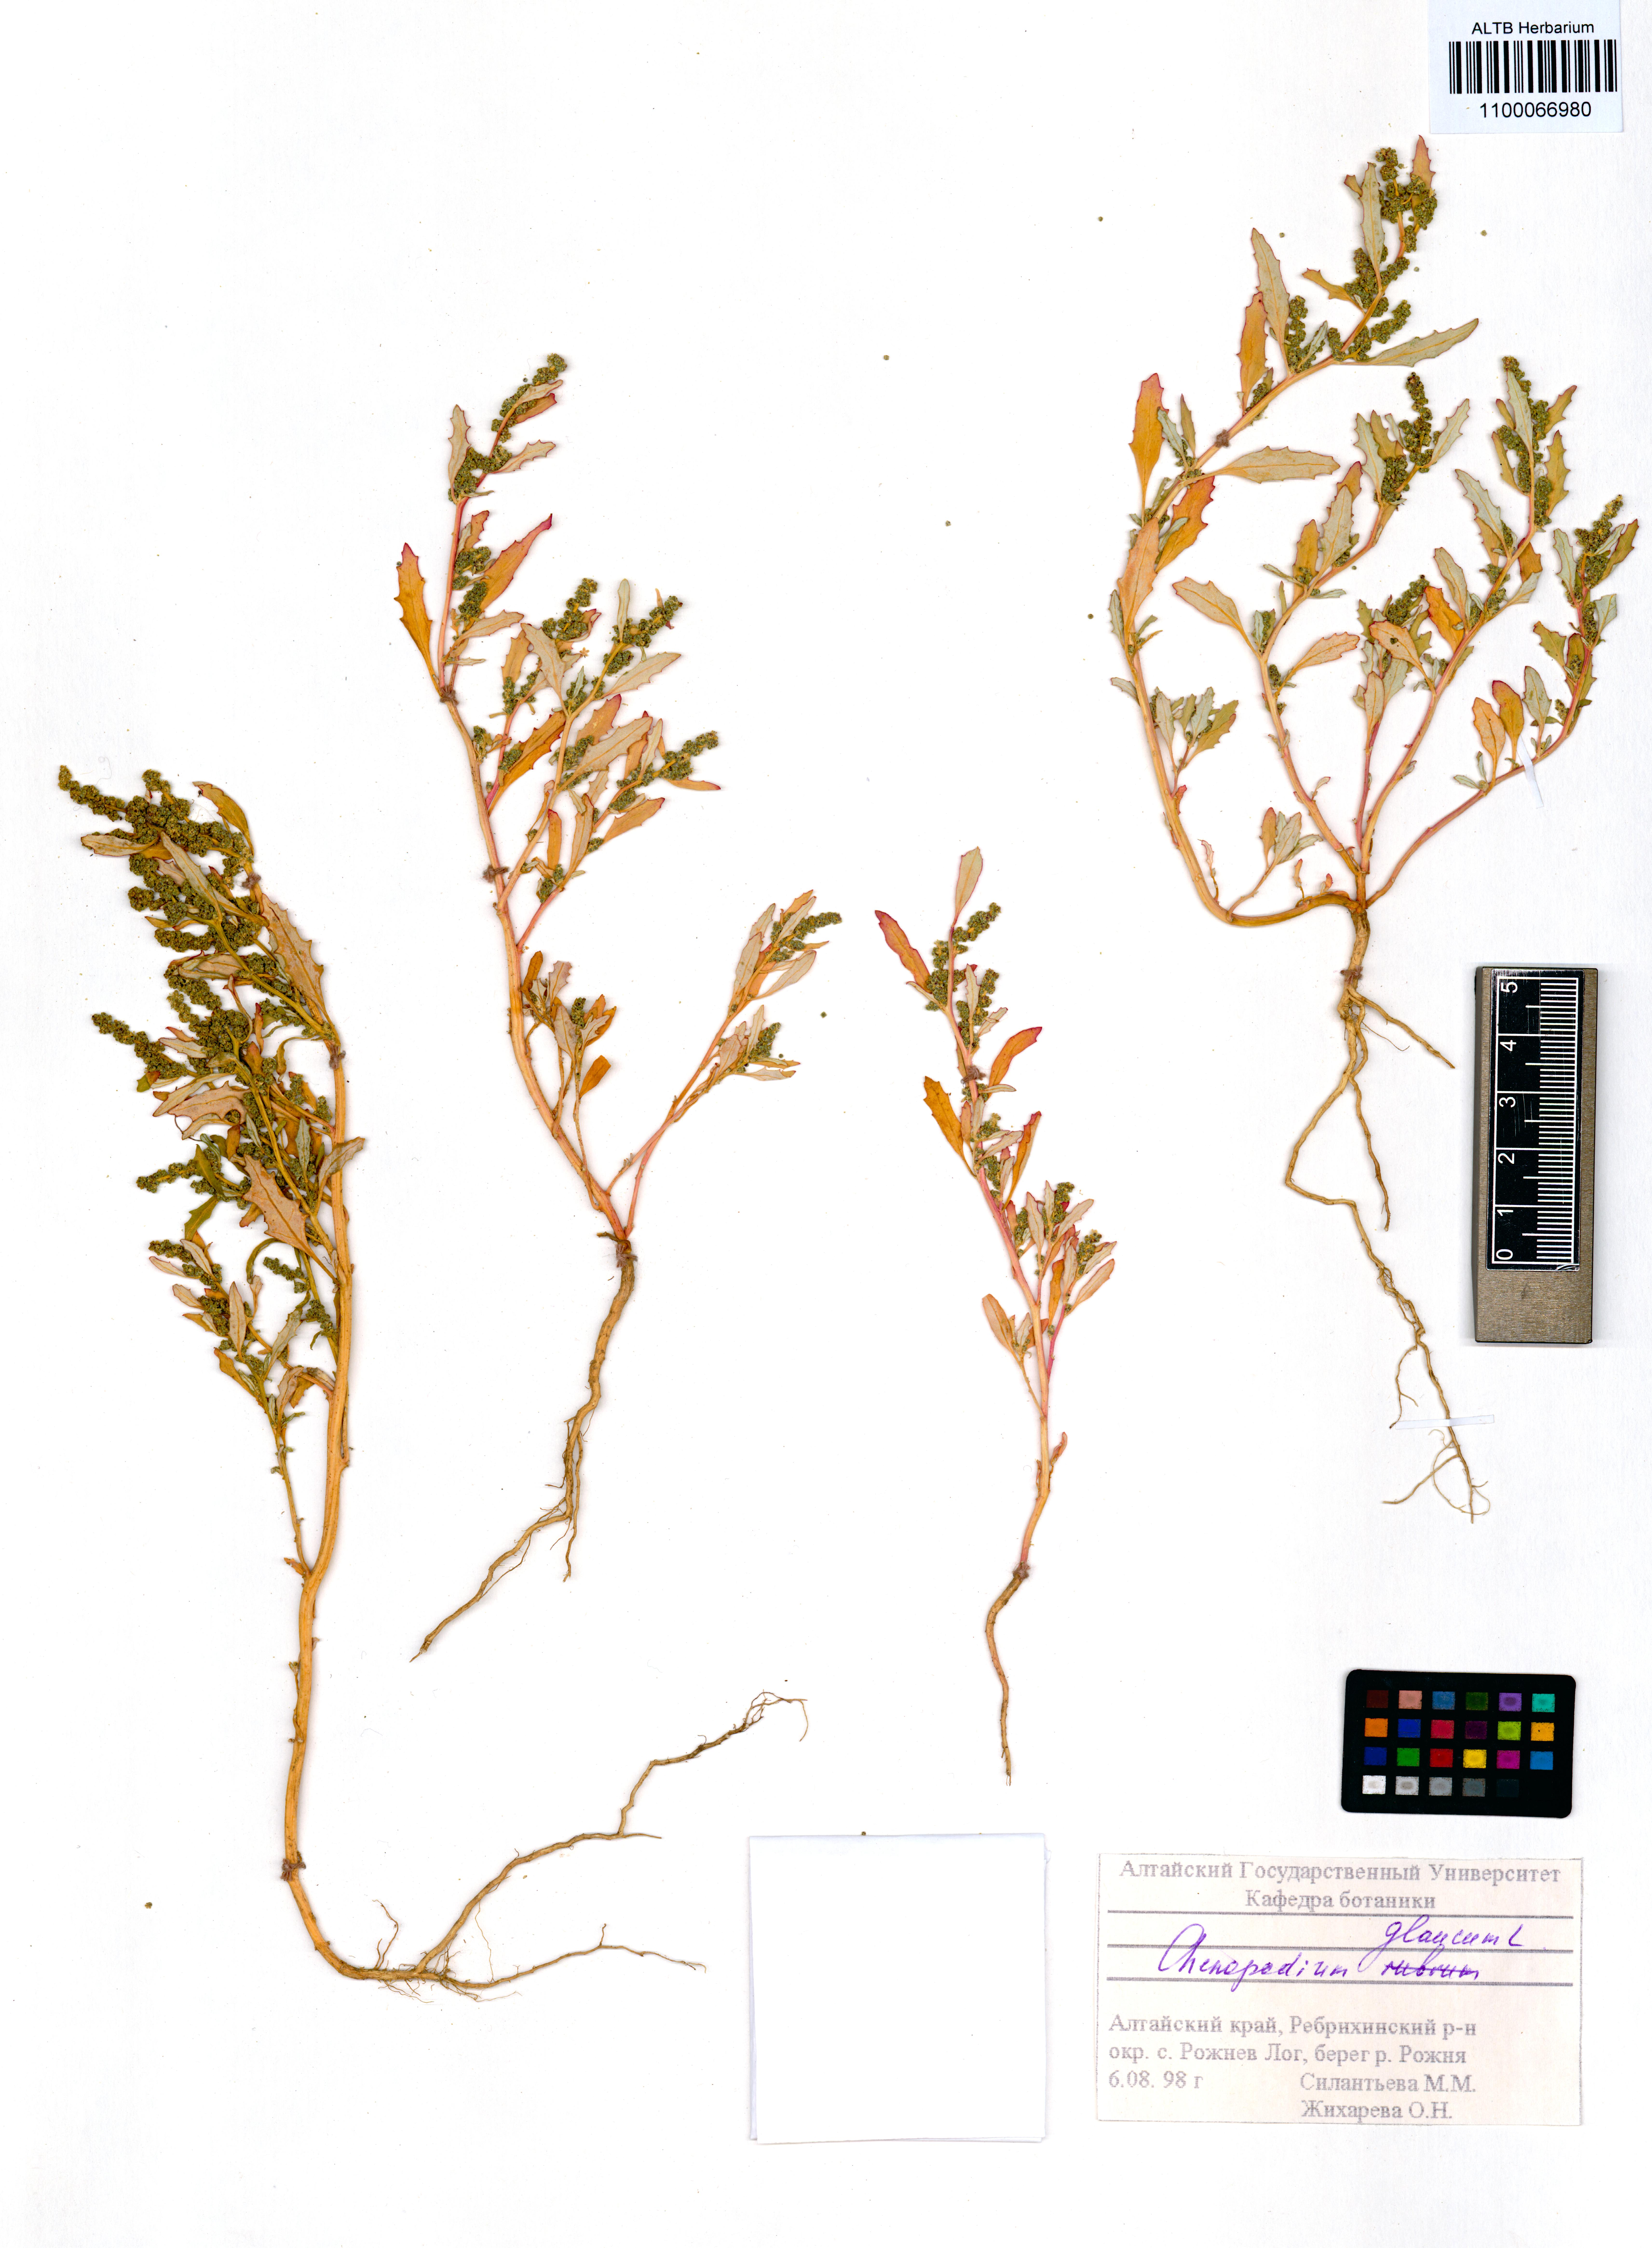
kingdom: Plantae
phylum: Tracheophyta
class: Magnoliopsida
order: Caryophyllales
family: Amaranthaceae
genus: Oxybasis
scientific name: Oxybasis glauca
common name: Glaucous goosefoot
